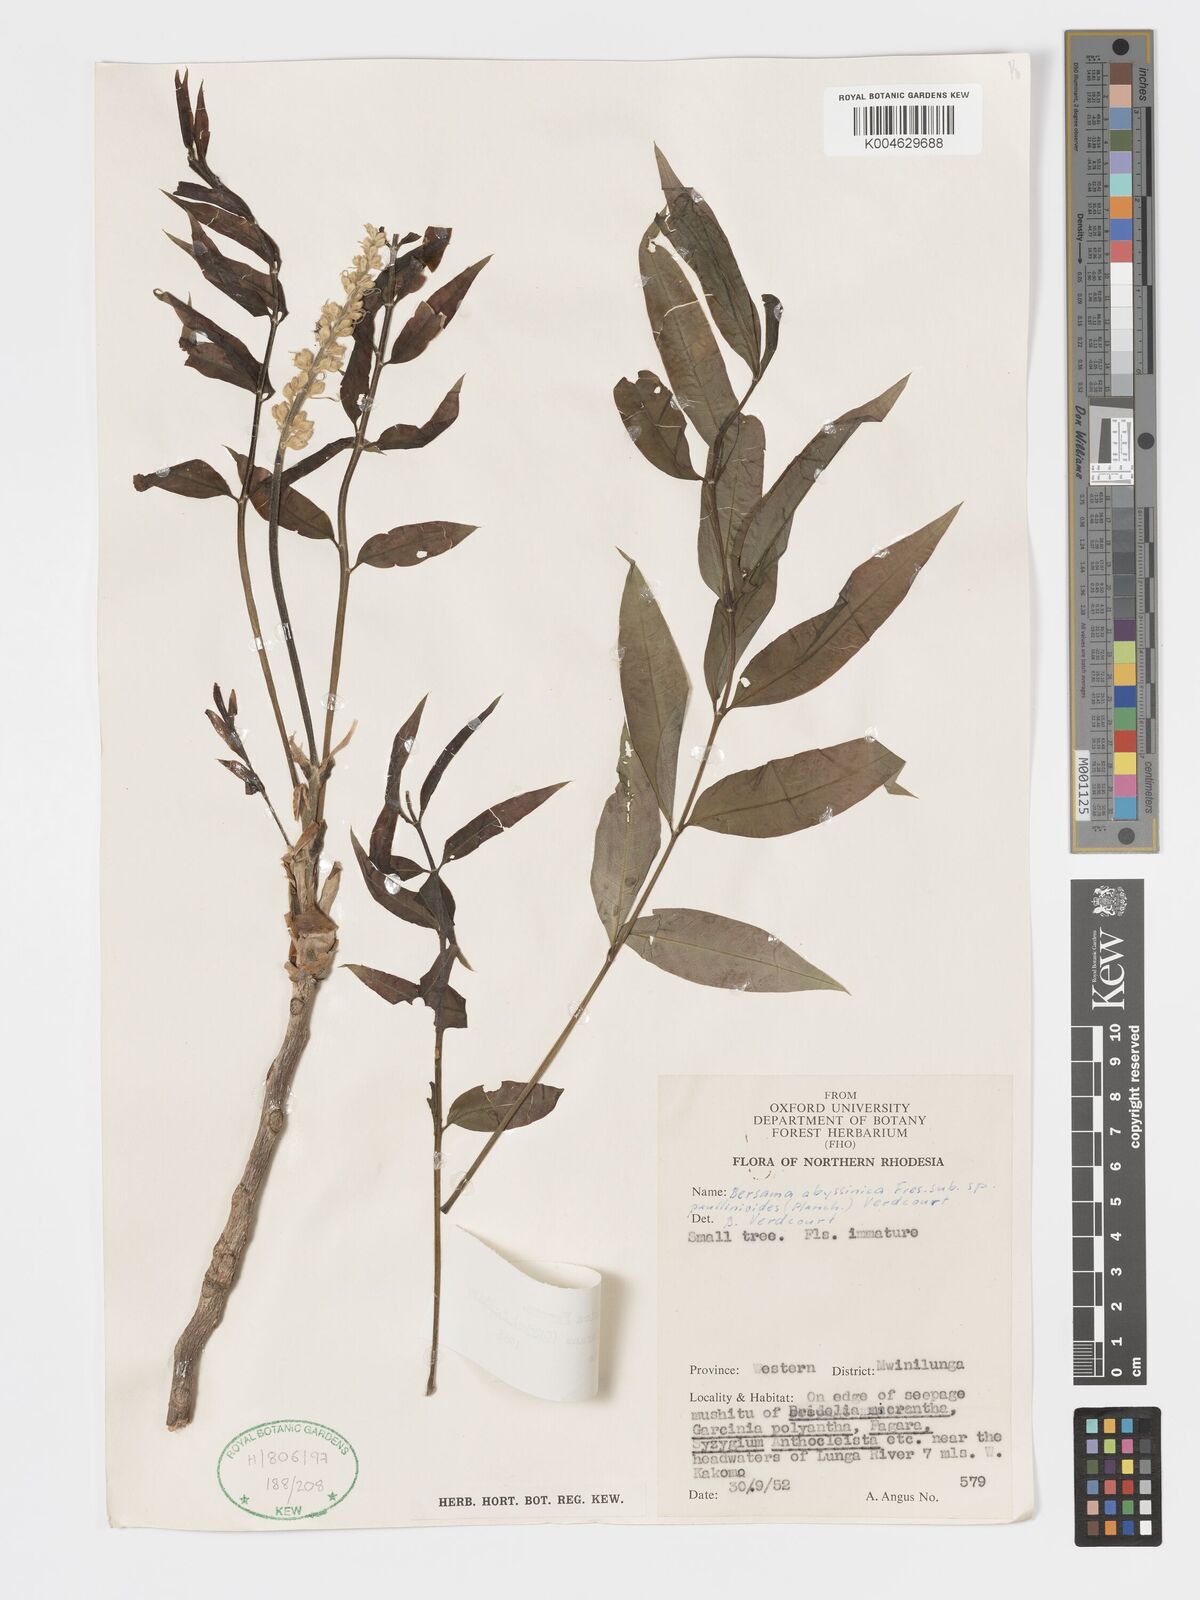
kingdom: Plantae
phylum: Tracheophyta
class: Magnoliopsida
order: Geraniales
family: Melianthaceae
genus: Bersama
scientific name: Bersama abyssinica
